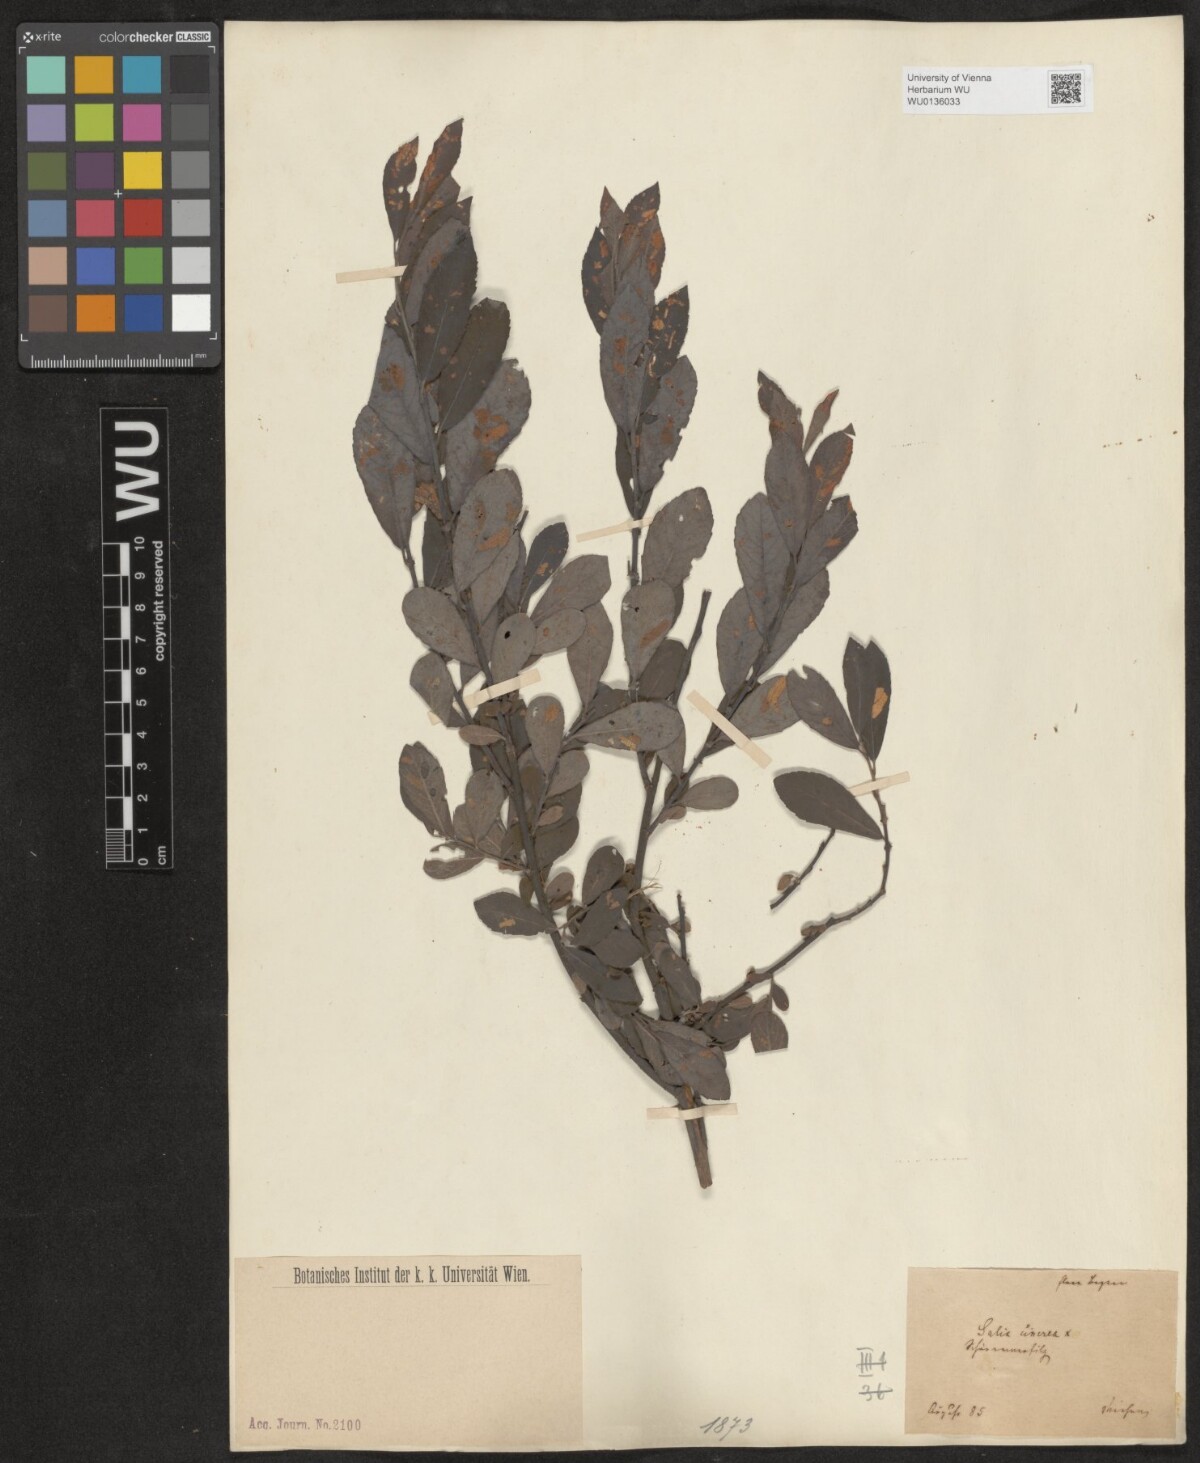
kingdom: Plantae
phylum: Tracheophyta
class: Magnoliopsida
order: Malpighiales
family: Salicaceae
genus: Salix
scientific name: Salix cinerea
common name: Common sallow
